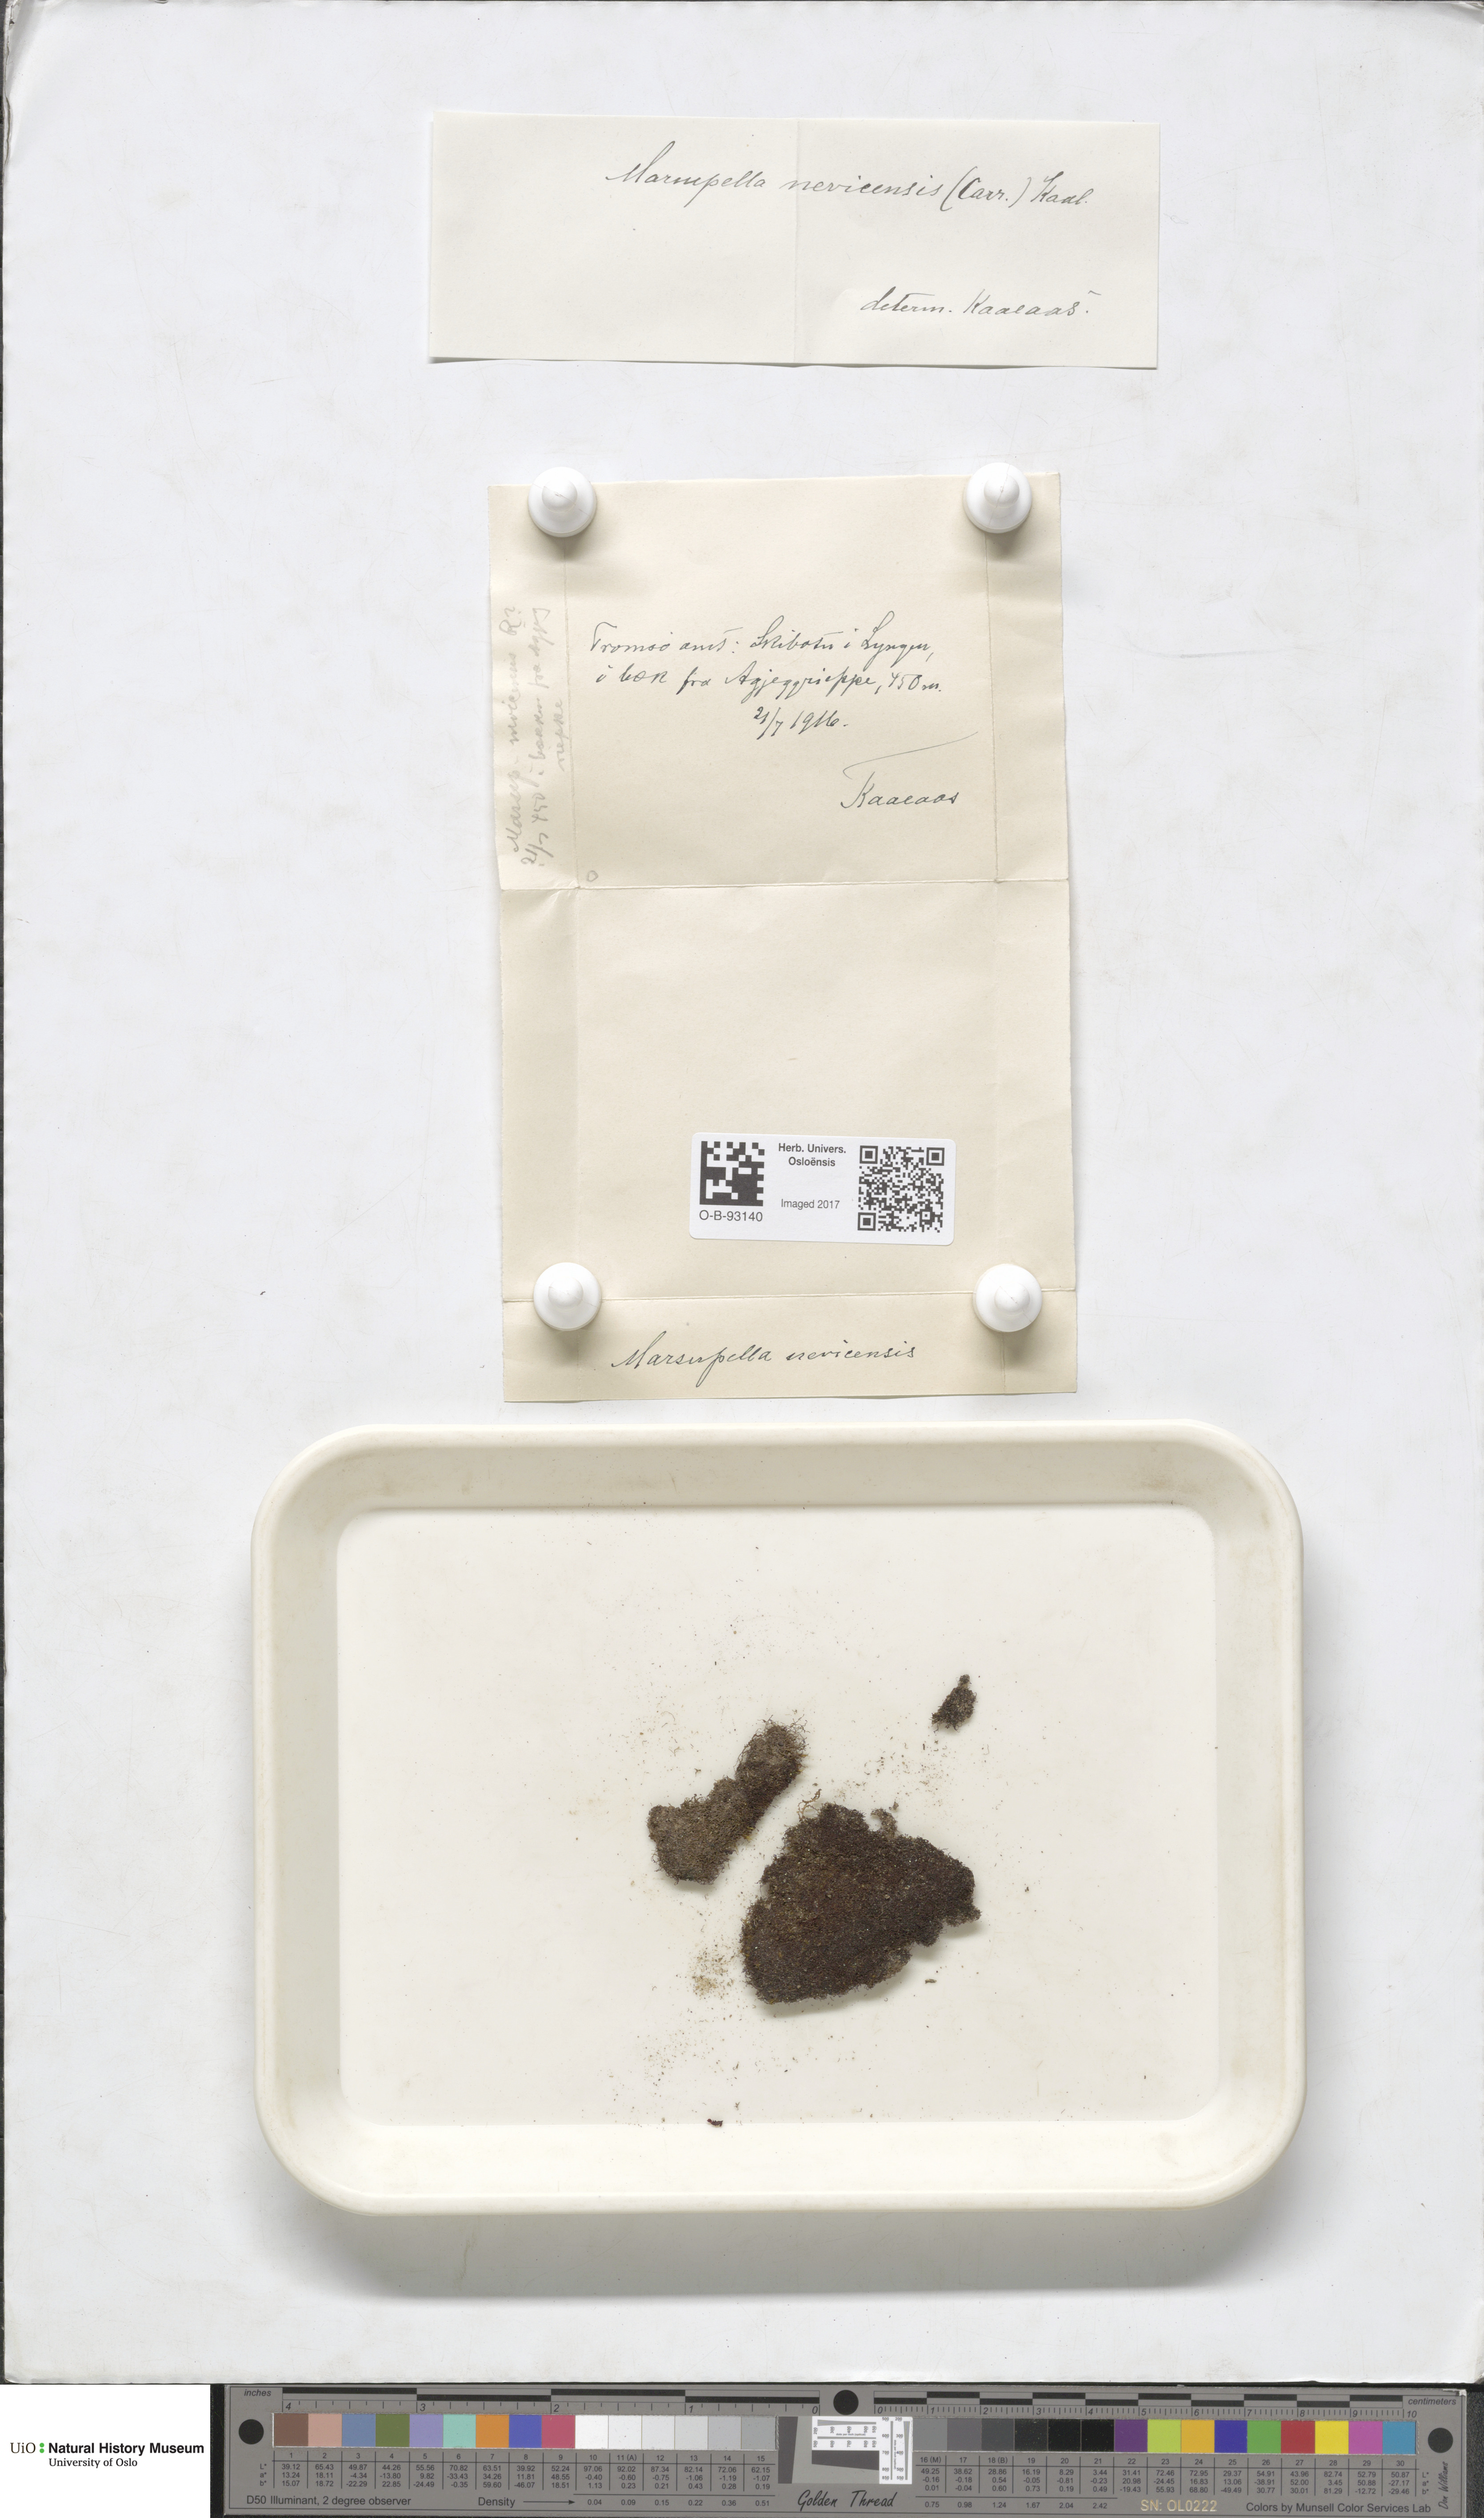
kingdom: Plantae
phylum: Marchantiophyta
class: Jungermanniopsida
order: Jungermanniales
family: Gymnomitriaceae
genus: Marsupella
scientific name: Marsupella boeckii
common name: Boeck s rustwort
